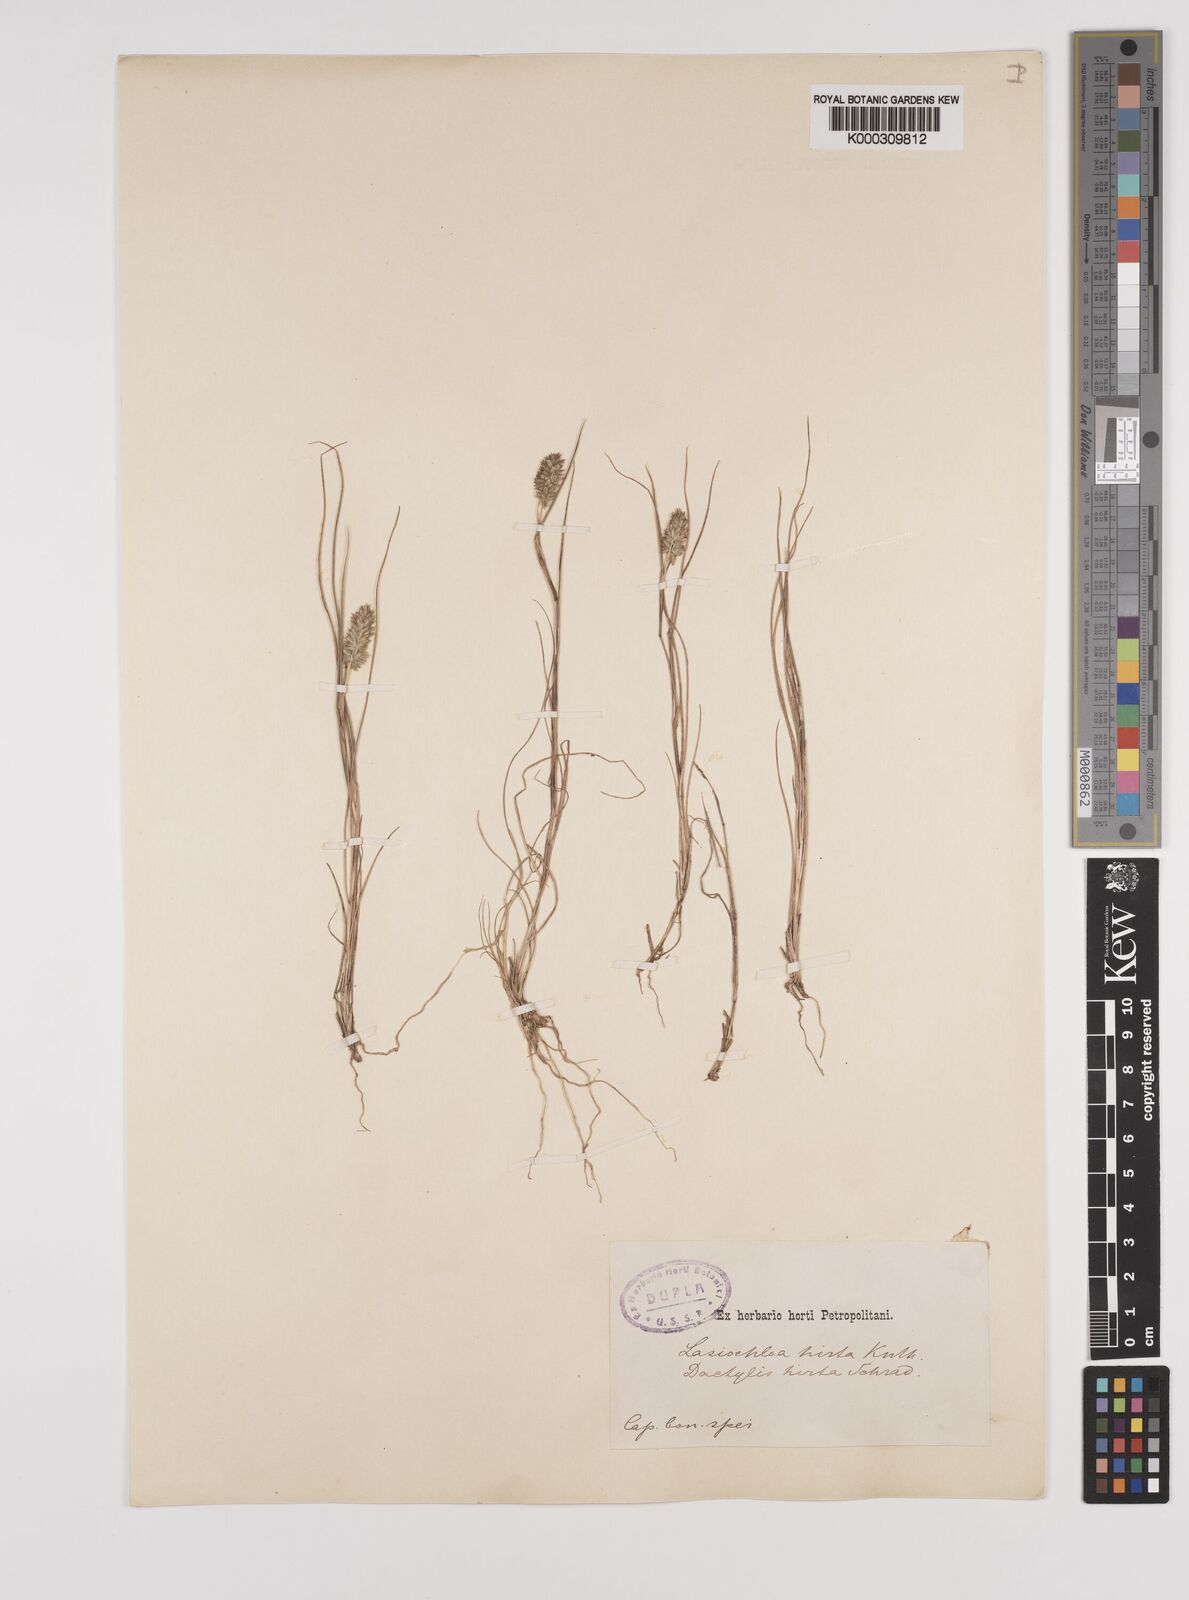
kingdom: Plantae
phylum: Tracheophyta
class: Liliopsida
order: Poales
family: Poaceae
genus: Tribolium
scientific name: Tribolium hispidum
